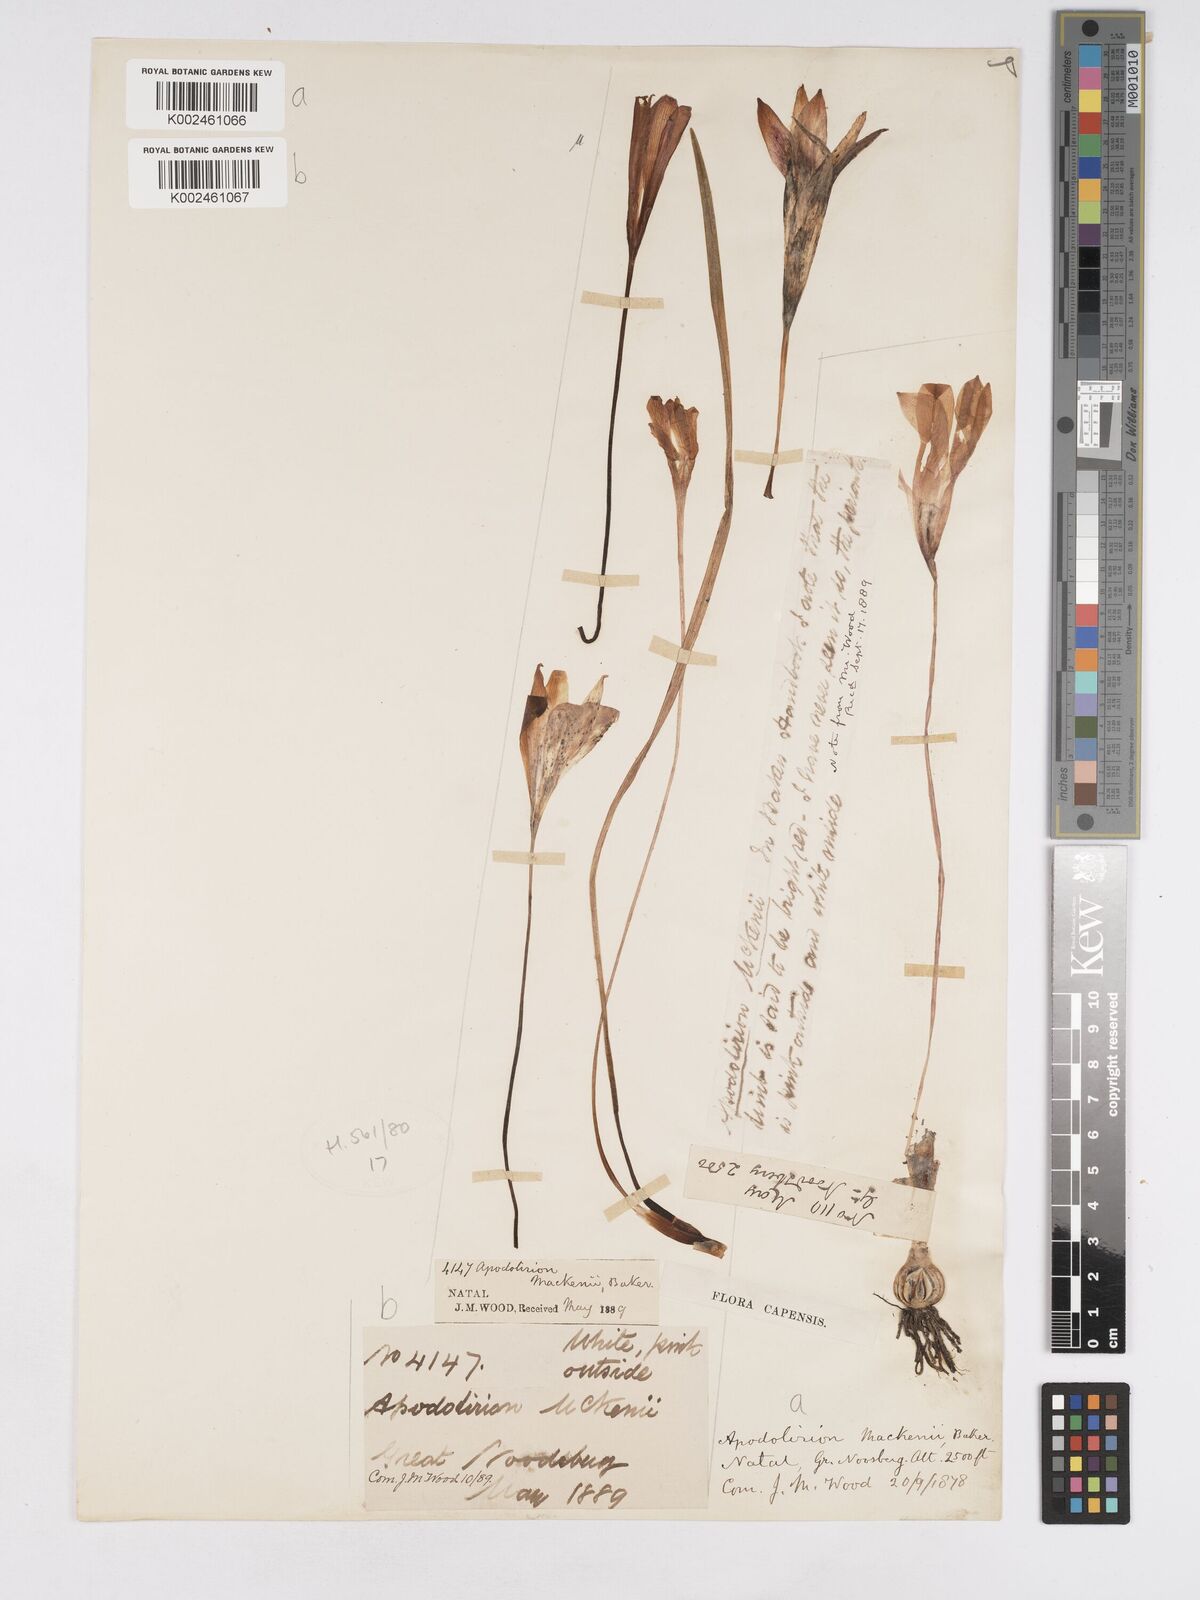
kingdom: Plantae
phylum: Tracheophyta
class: Liliopsida
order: Asparagales
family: Amaryllidaceae
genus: Apodolirion
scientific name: Apodolirion buchananii
